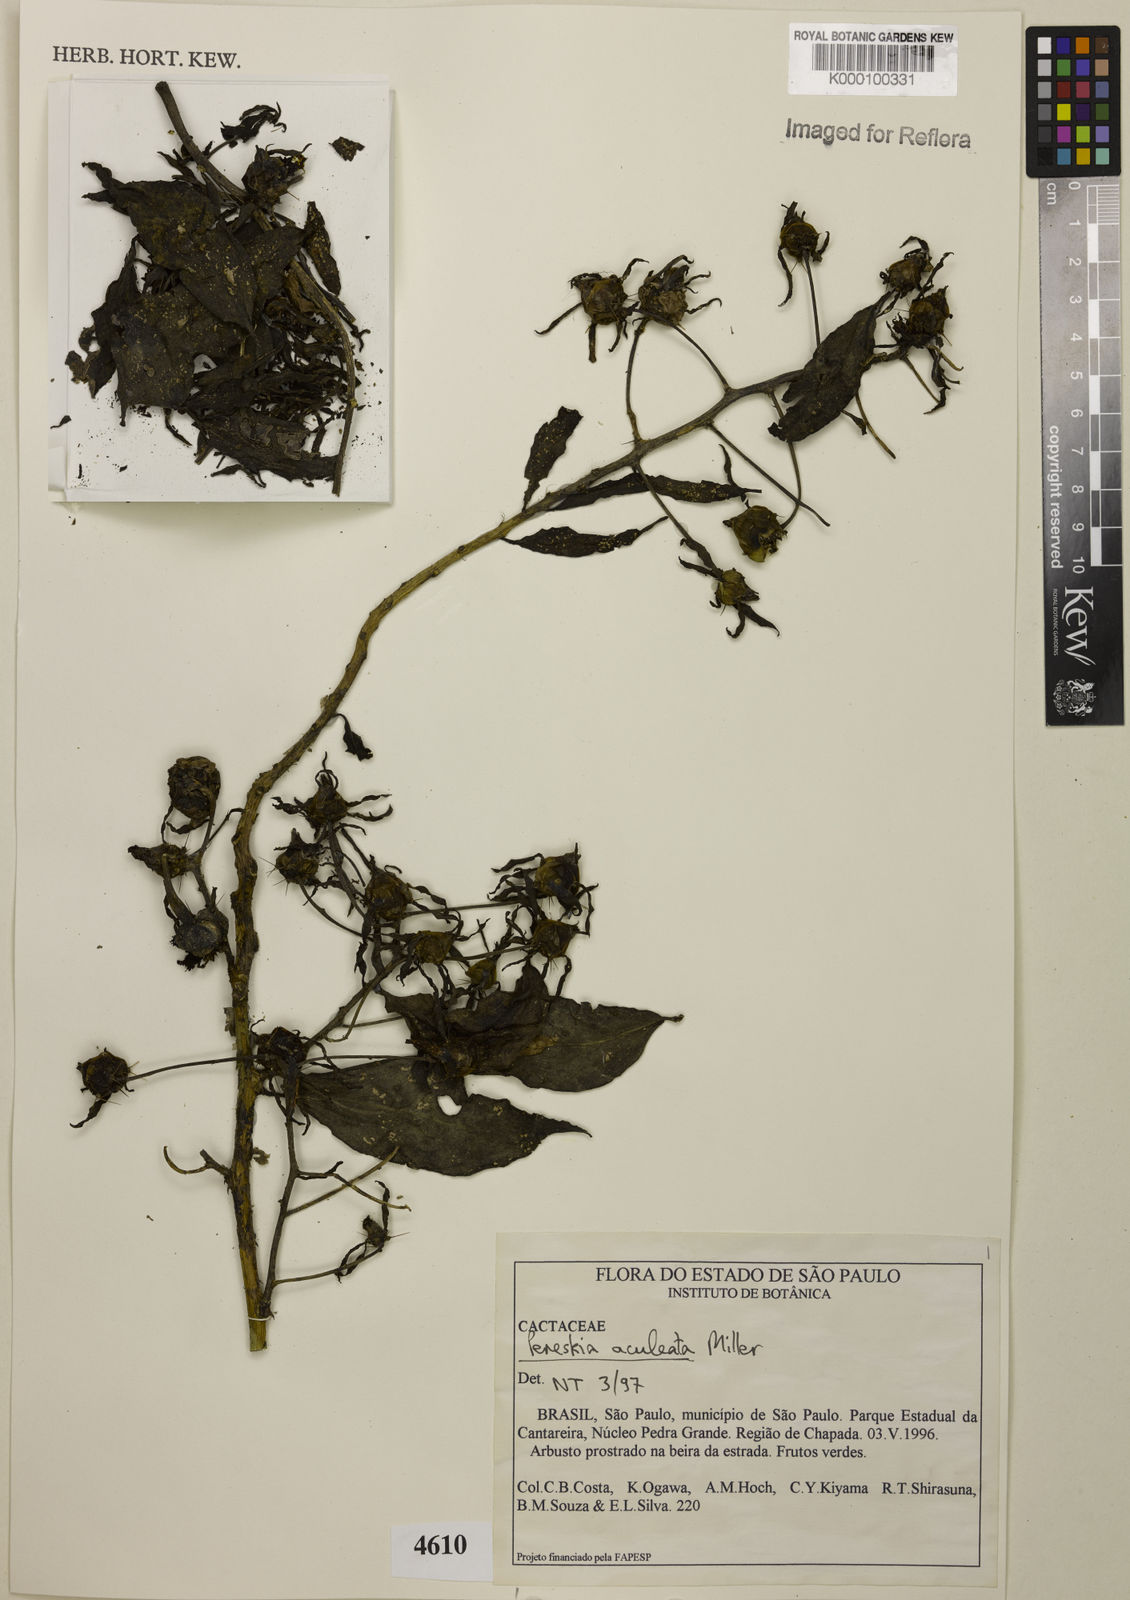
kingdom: Plantae
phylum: Tracheophyta
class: Magnoliopsida
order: Caryophyllales
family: Cactaceae
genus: Pereskia
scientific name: Pereskia aculeata
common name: Barbados gooseberry
